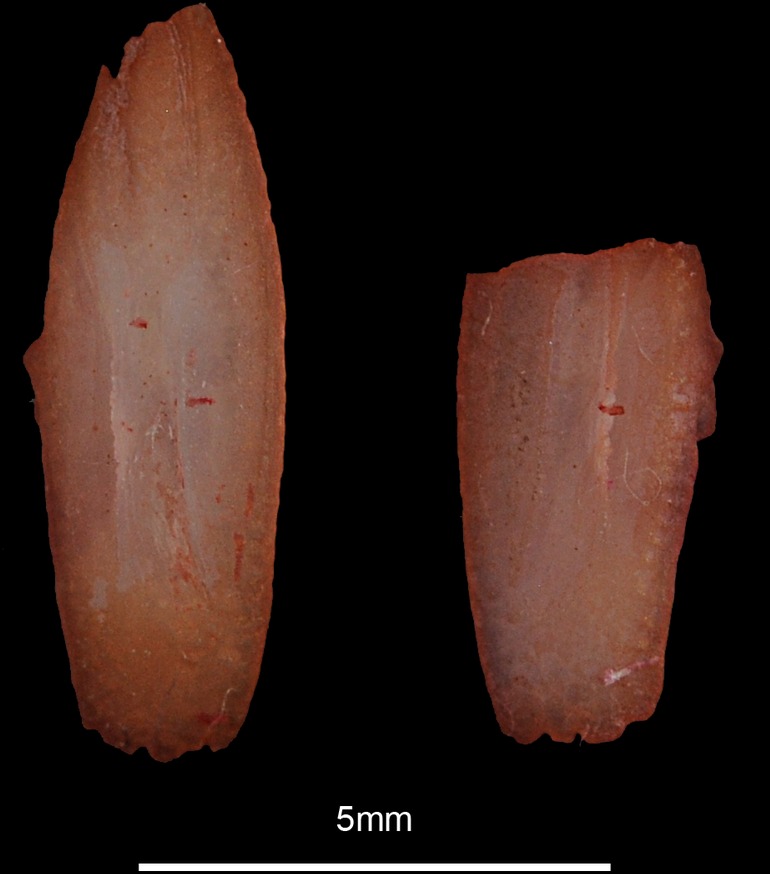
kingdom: Animalia
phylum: Chordata
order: Perciformes
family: Sphyraenidae
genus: Sphyraena
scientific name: Sphyraena sphyraena
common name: European barracuda
